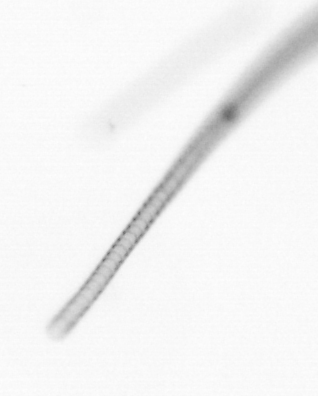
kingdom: Chromista
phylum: Ochrophyta
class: Bacillariophyceae
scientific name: Bacillariophyceae
